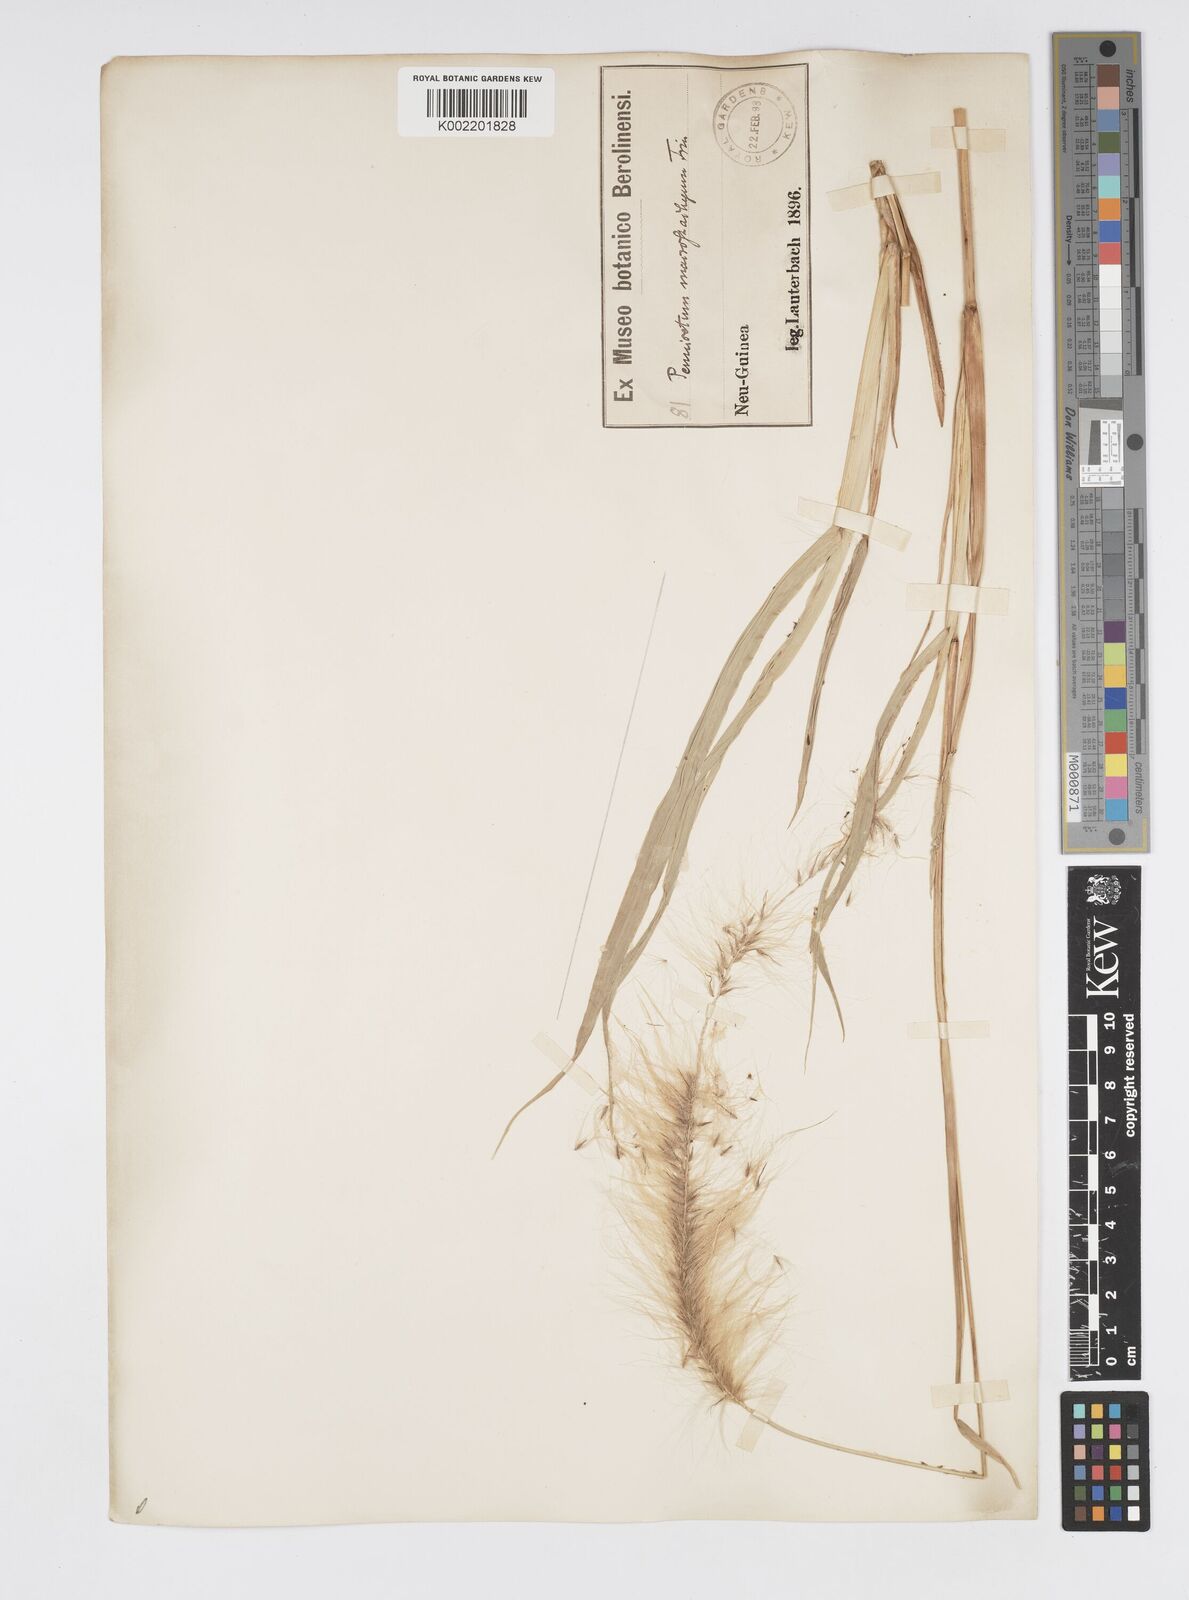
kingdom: Plantae
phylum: Tracheophyta
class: Liliopsida
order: Poales
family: Poaceae
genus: Cenchrus
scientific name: Cenchrus purpureus
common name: Elephant grass
